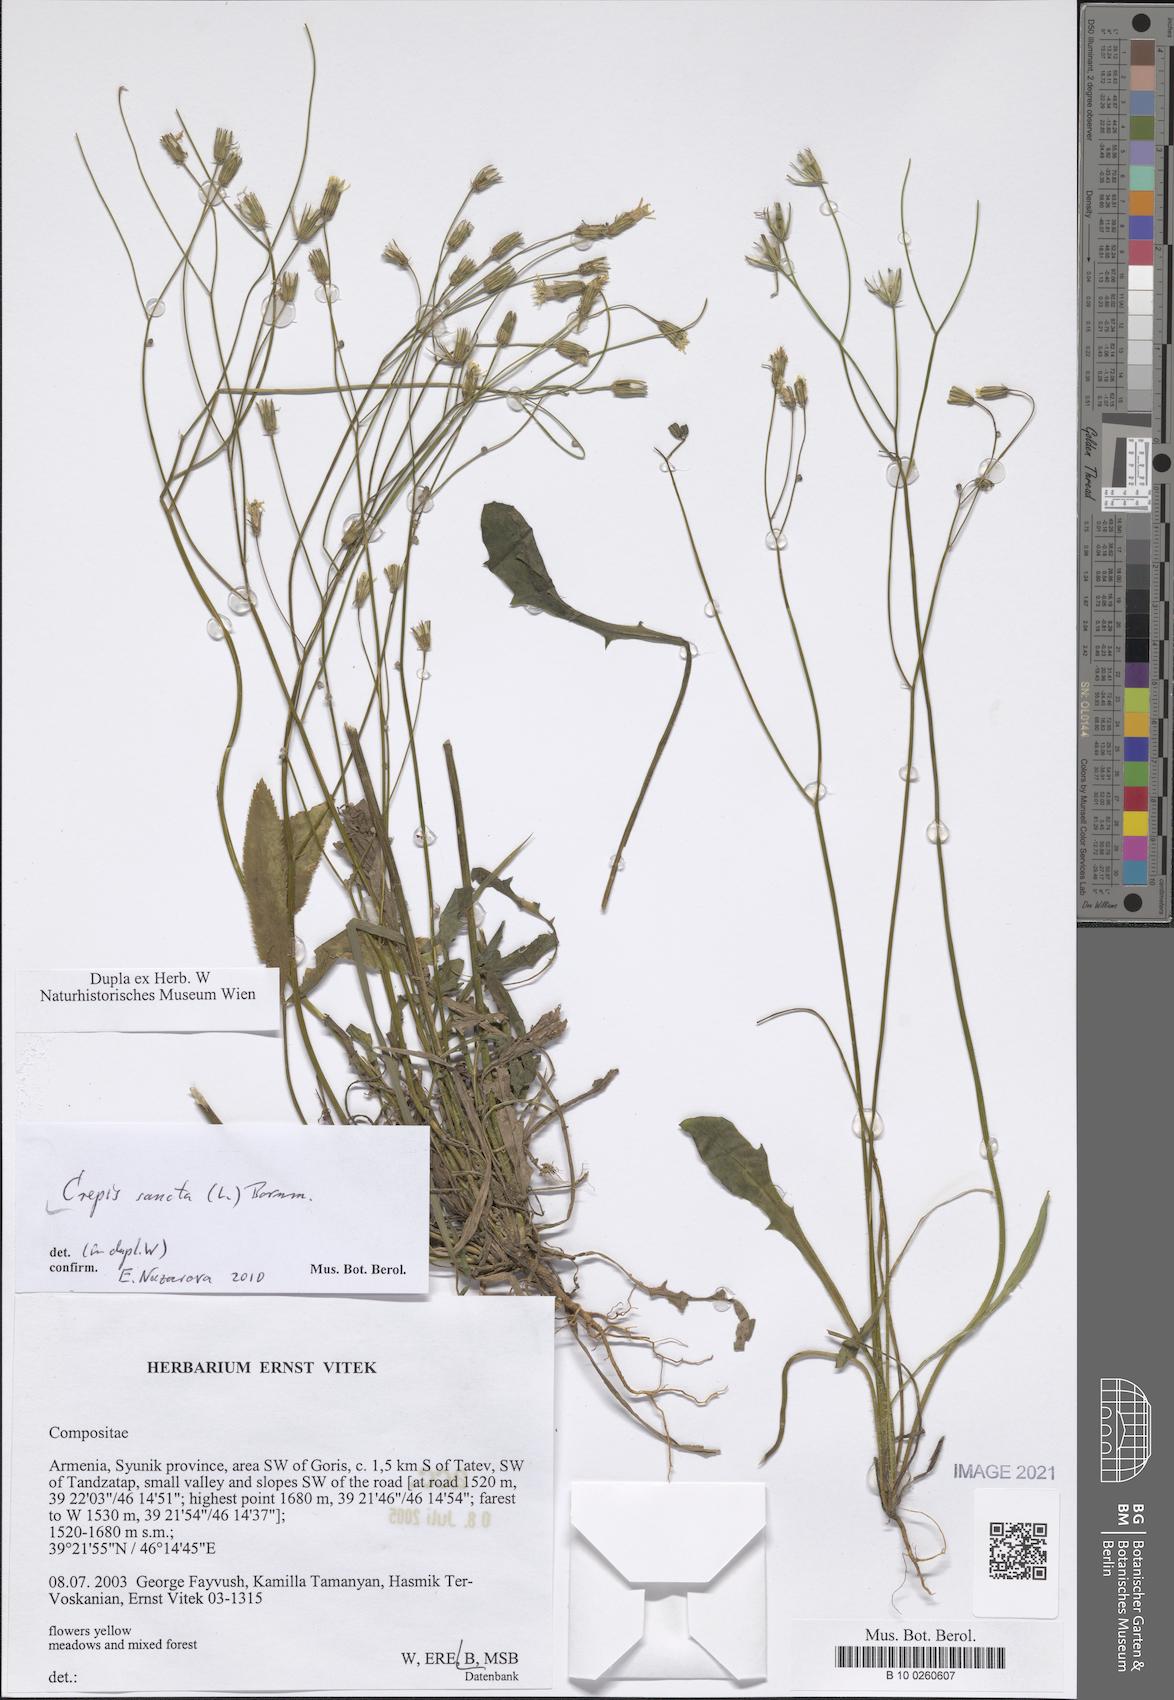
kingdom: Plantae
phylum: Tracheophyta
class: Magnoliopsida
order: Asterales
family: Asteraceae
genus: Crepis
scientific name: Crepis sancta
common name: Hawk's-beard
